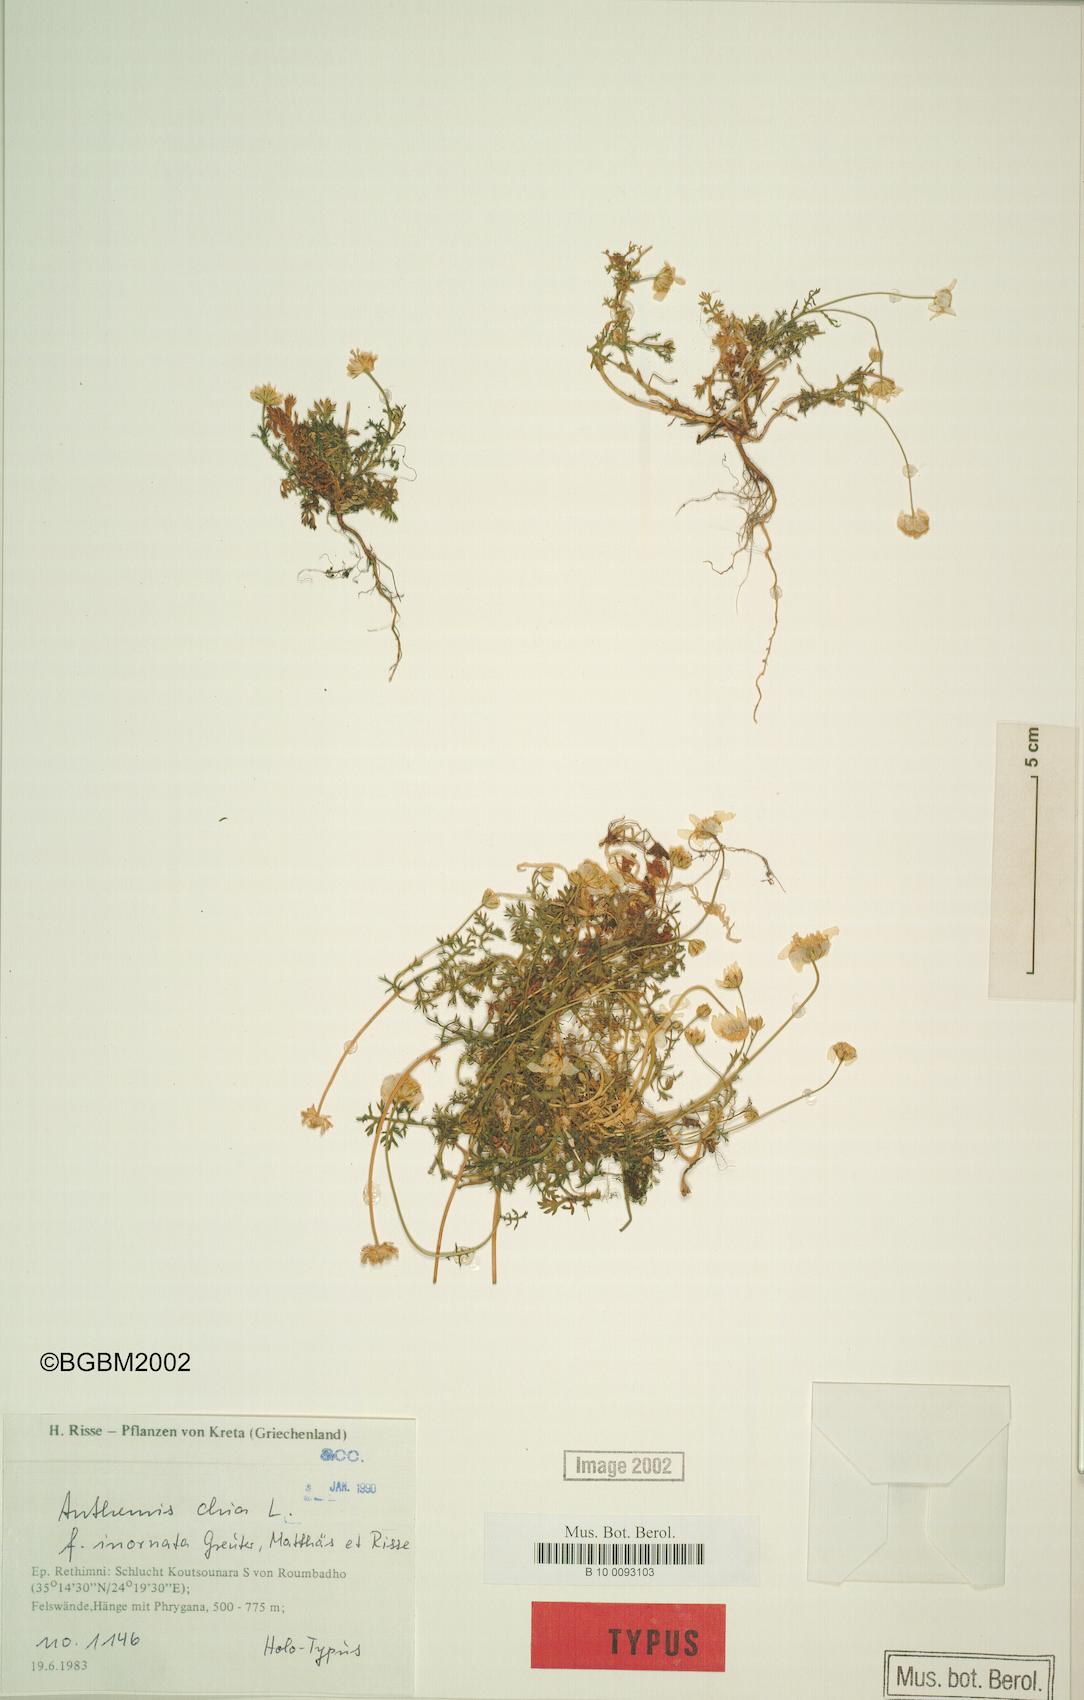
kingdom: Plantae
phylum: Tracheophyta
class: Magnoliopsida
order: Asterales
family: Asteraceae
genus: Anthemis
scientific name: Anthemis chia
